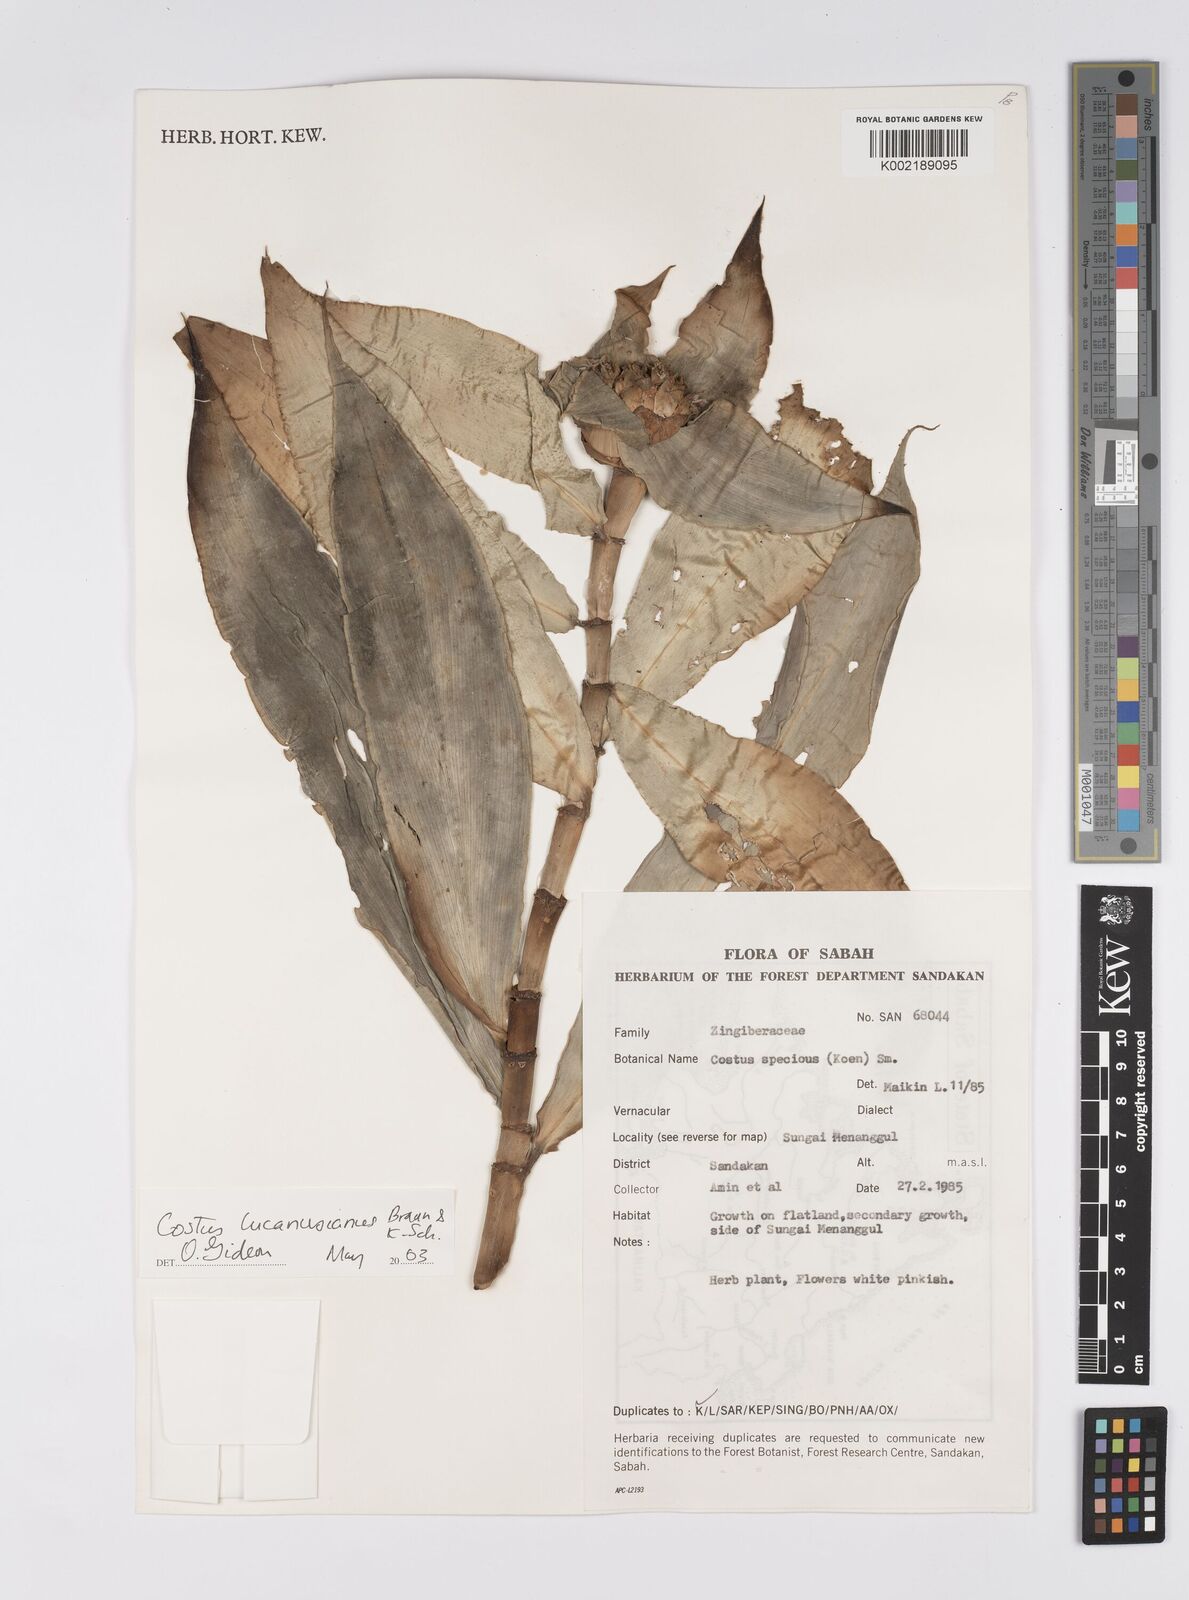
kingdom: Plantae
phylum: Tracheophyta
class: Liliopsida
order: Zingiberales
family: Costaceae
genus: Costus
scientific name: Costus lucanusianus
